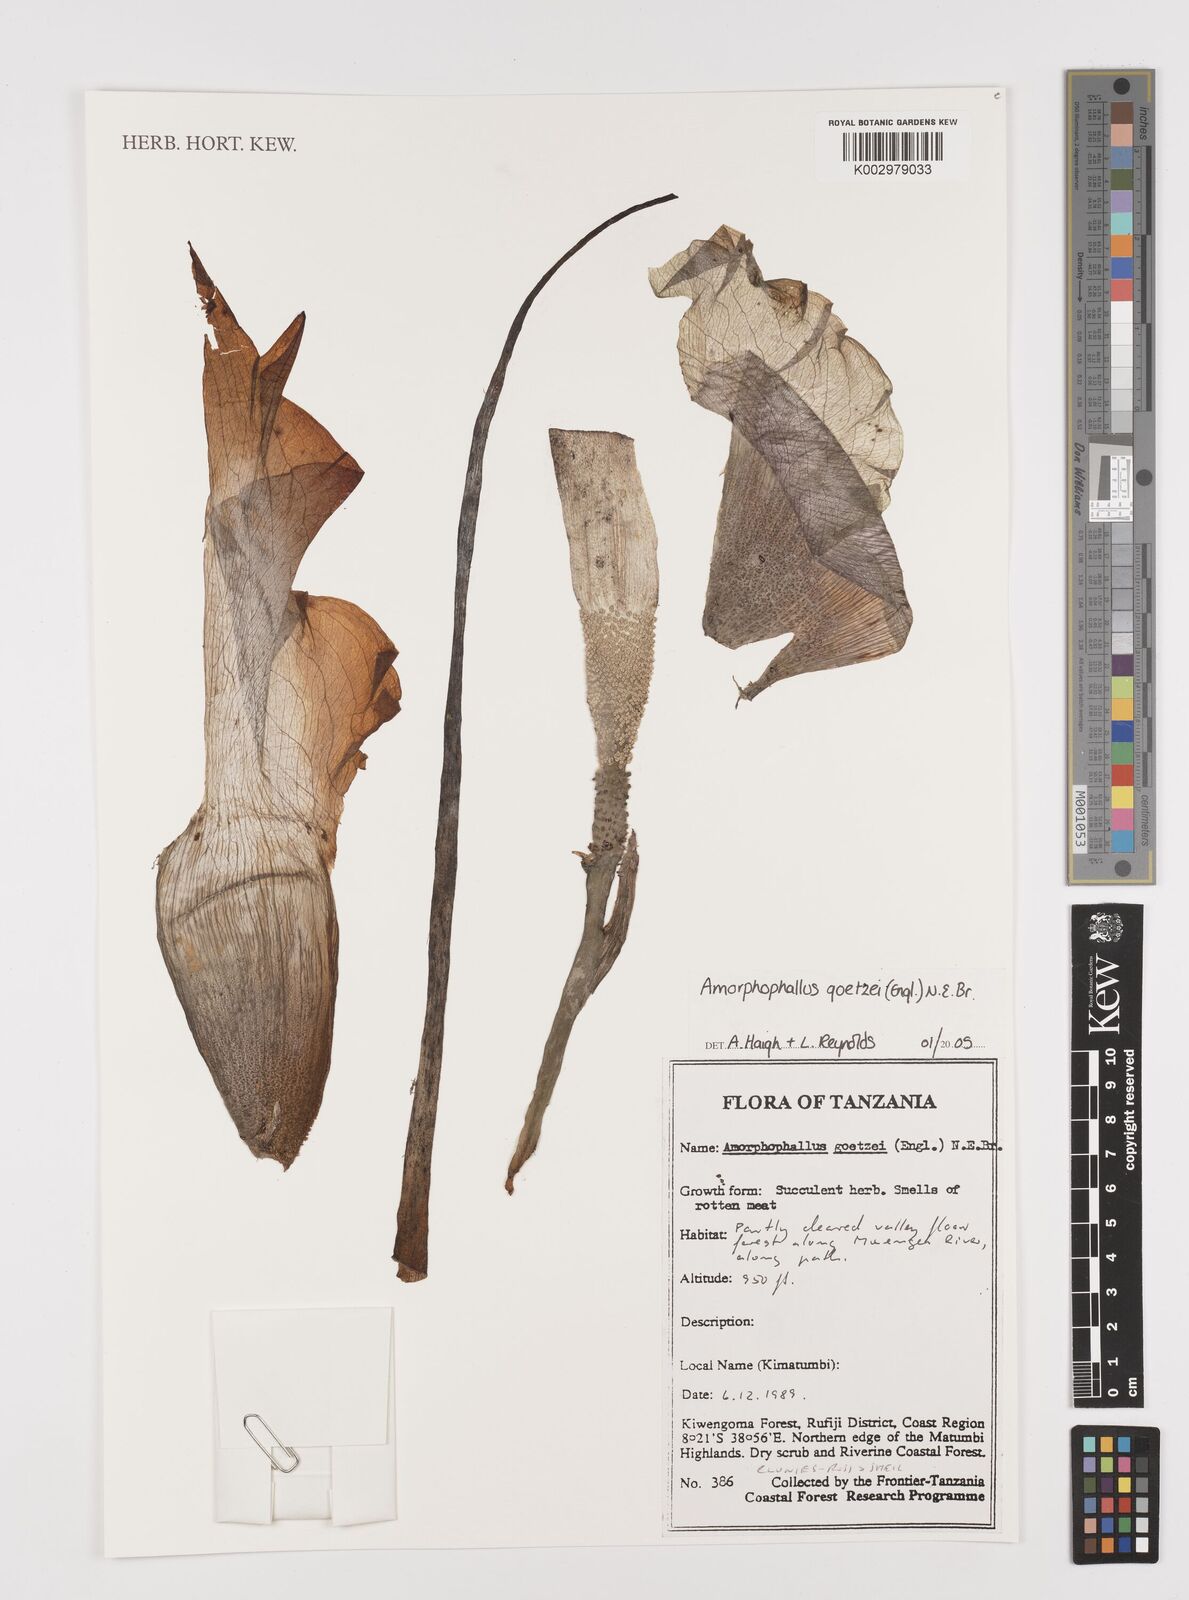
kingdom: Plantae
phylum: Tracheophyta
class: Liliopsida
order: Alismatales
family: Araceae
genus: Amorphophallus
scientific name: Amorphophallus goetzei
